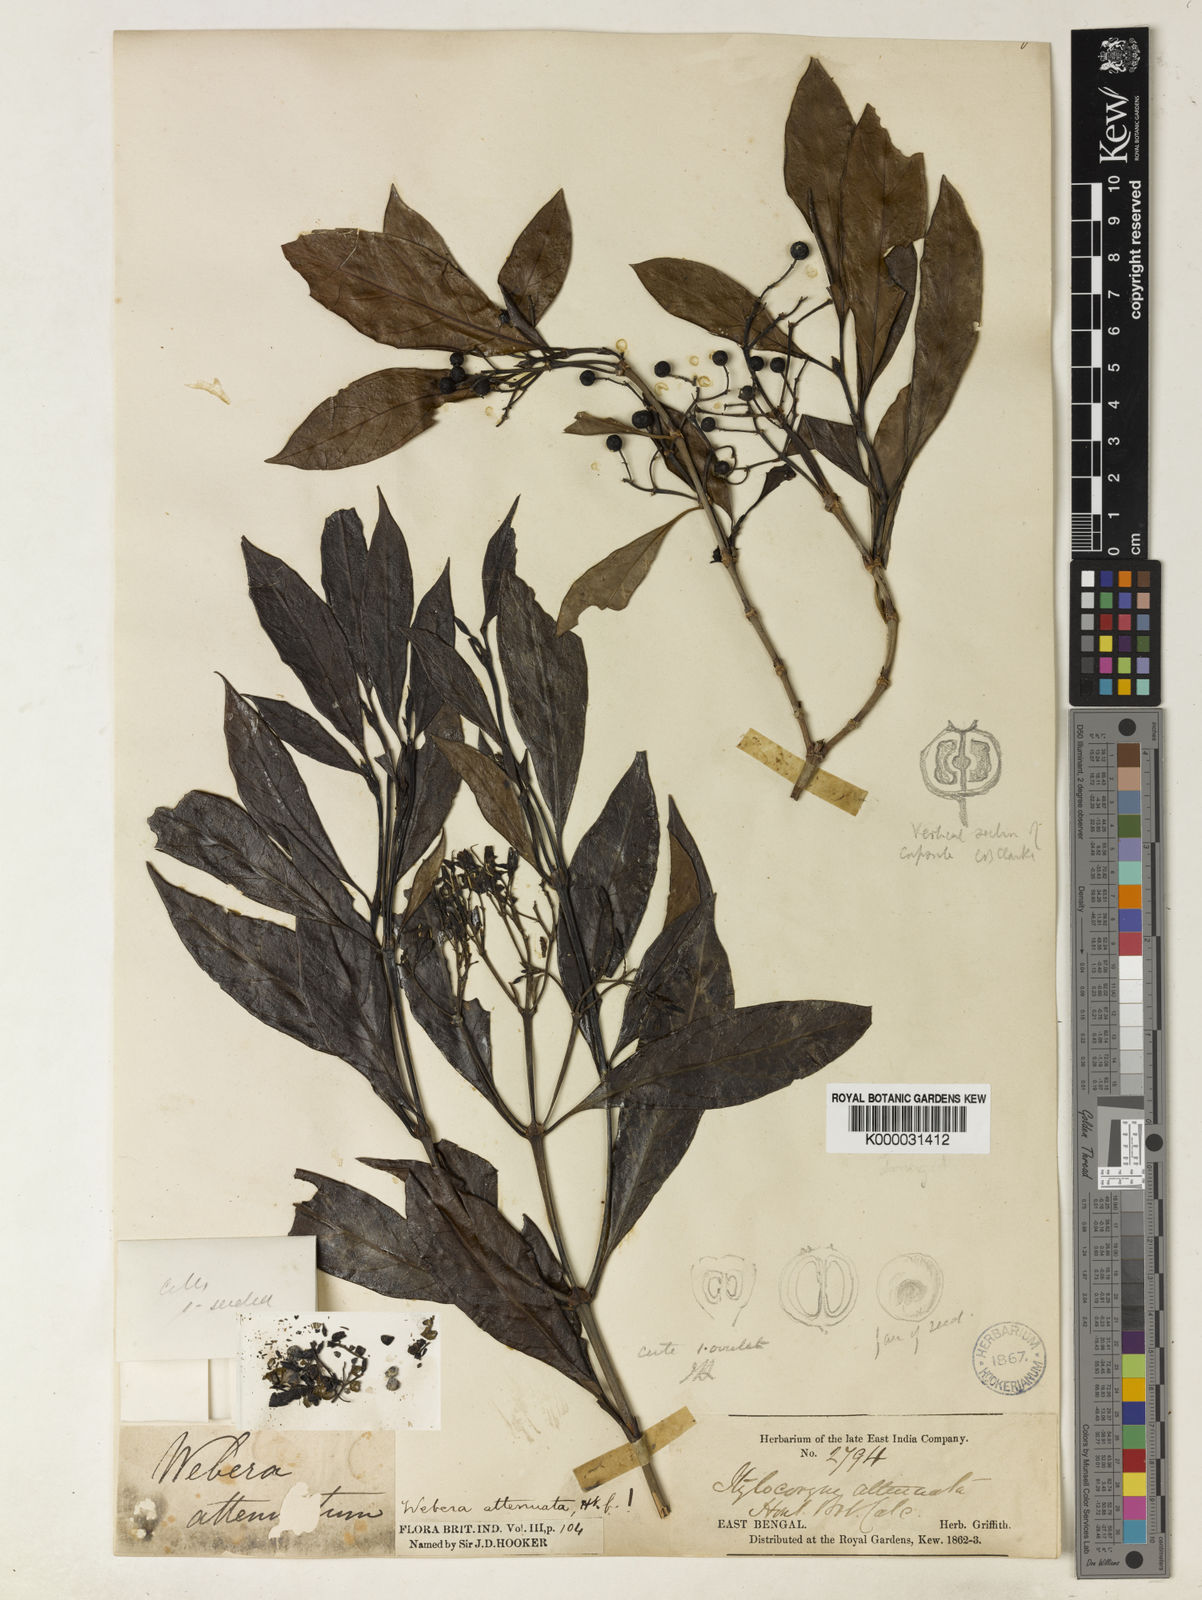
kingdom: Plantae
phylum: Tracheophyta
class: Magnoliopsida
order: Gentianales
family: Rubiaceae
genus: Tarenna
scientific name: Tarenna attenuata
